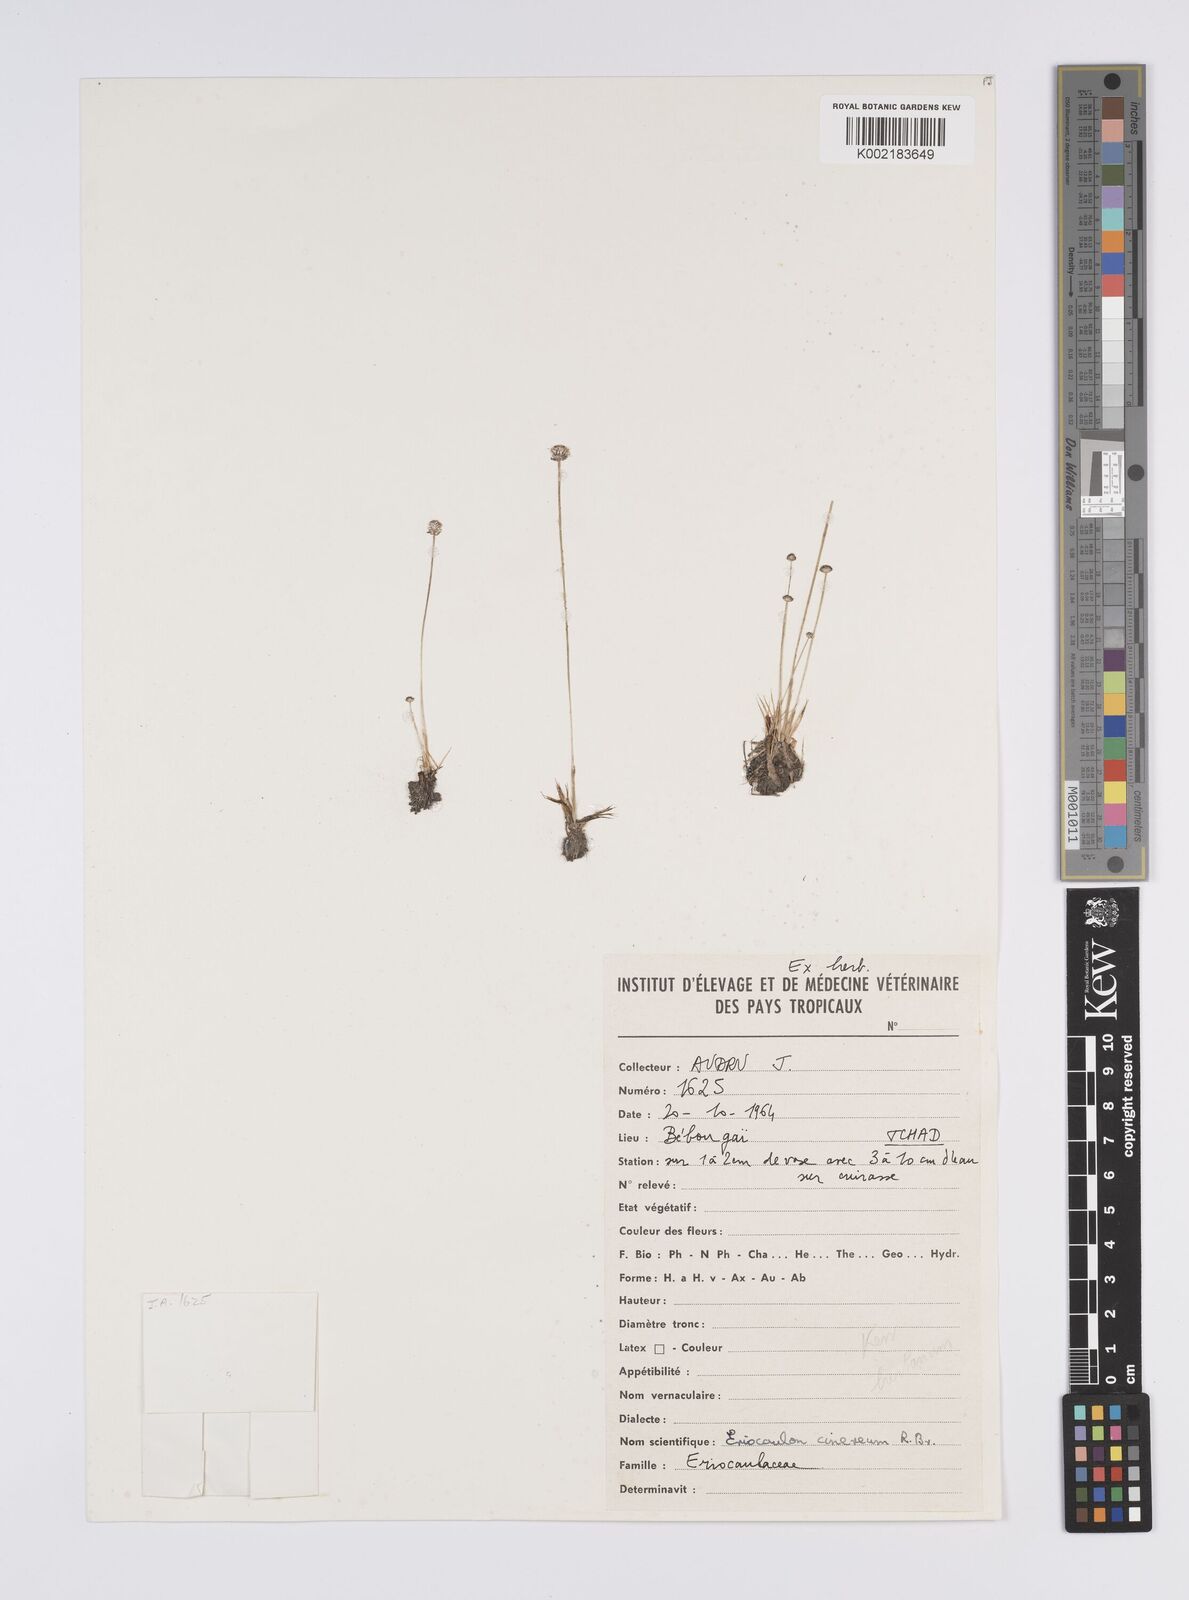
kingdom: Plantae
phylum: Tracheophyta
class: Liliopsida
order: Poales
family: Eriocaulaceae
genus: Eriocaulon
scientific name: Eriocaulon cinereum
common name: Ashy pipewort
